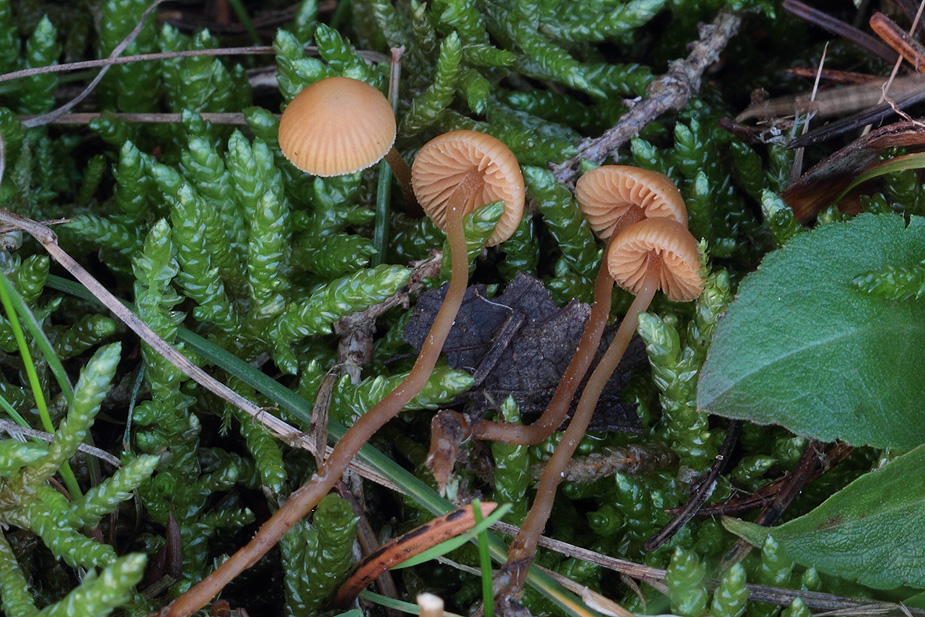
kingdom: Fungi
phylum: Basidiomycota
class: Agaricomycetes
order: Agaricales
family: Hymenogastraceae
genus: Galerina
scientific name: Galerina vittiformis
